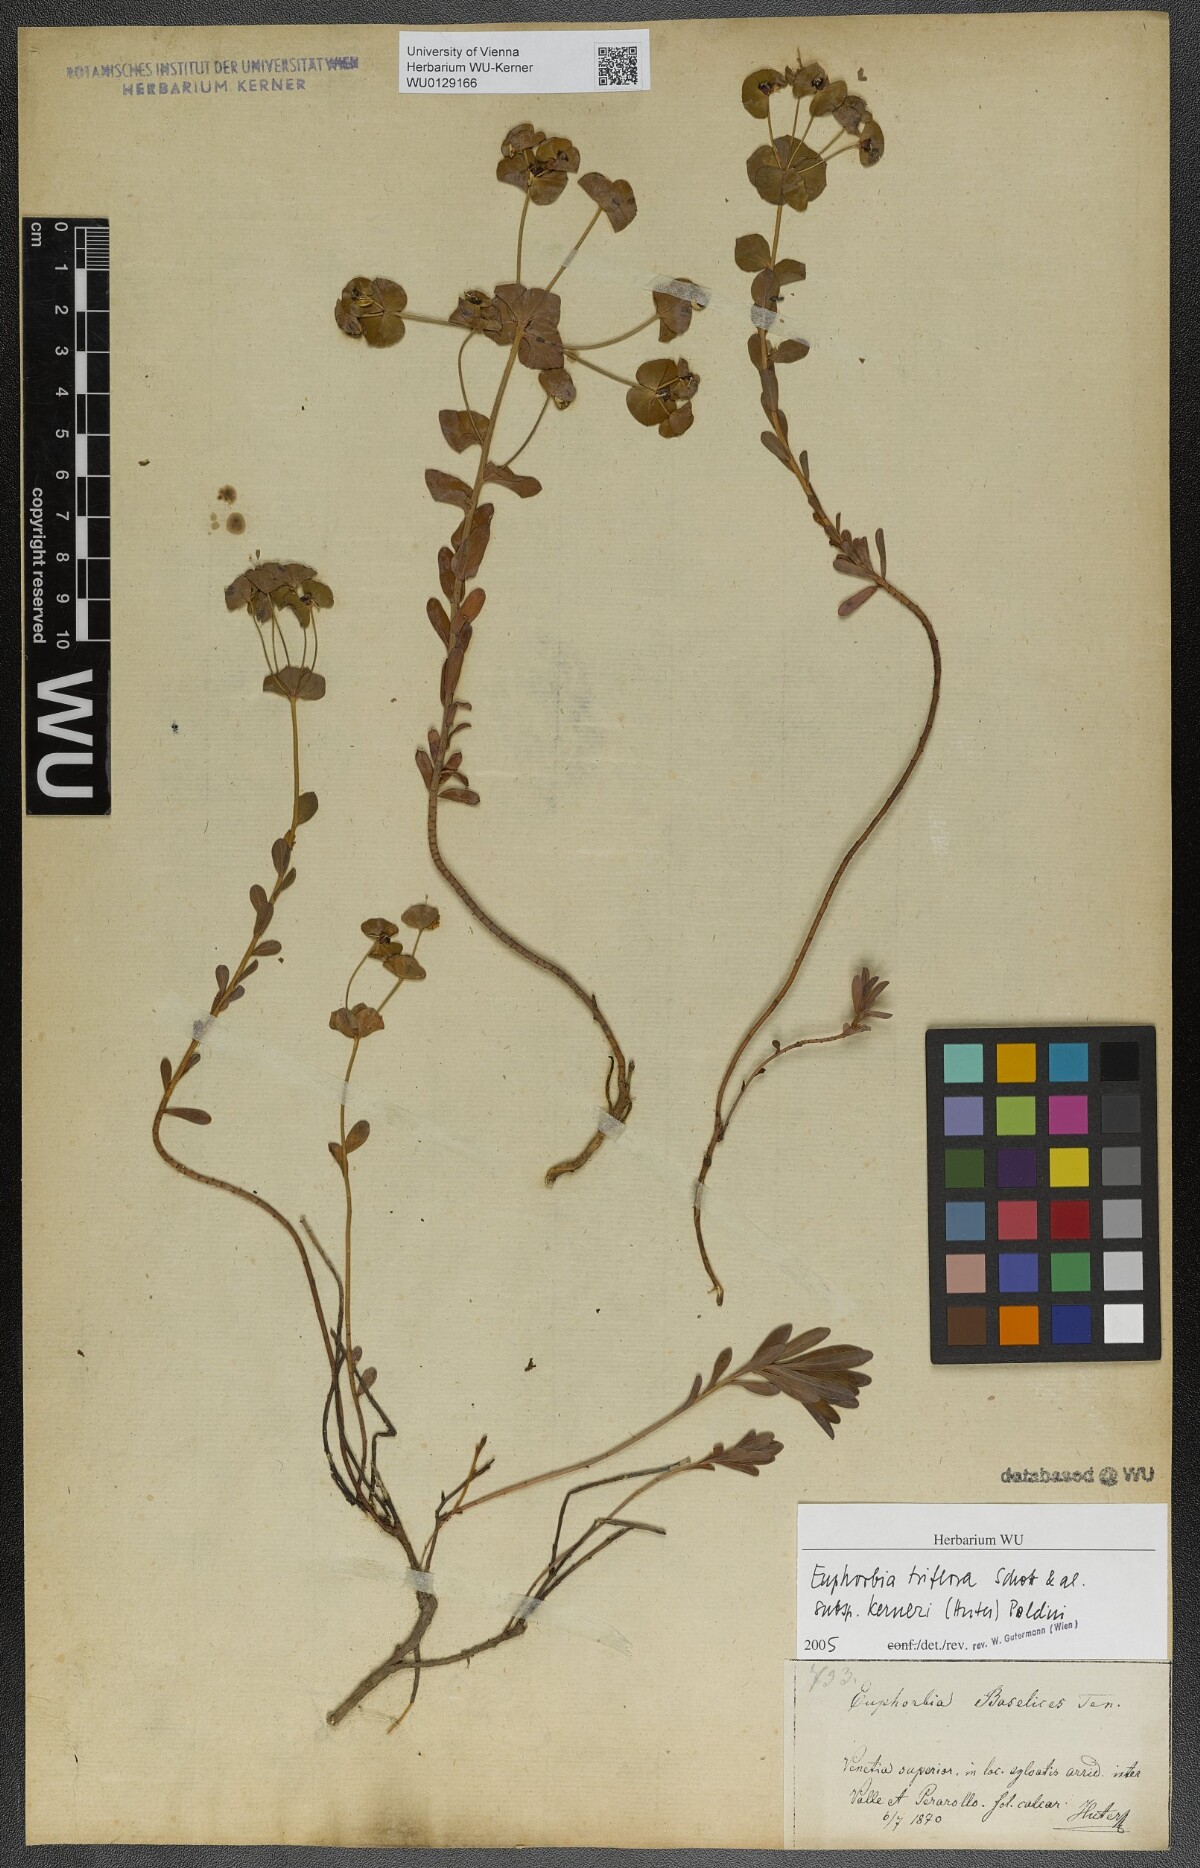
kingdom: Plantae
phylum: Tracheophyta
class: Magnoliopsida
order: Malpighiales
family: Euphorbiaceae
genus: Euphorbia
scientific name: Euphorbia kerneri
